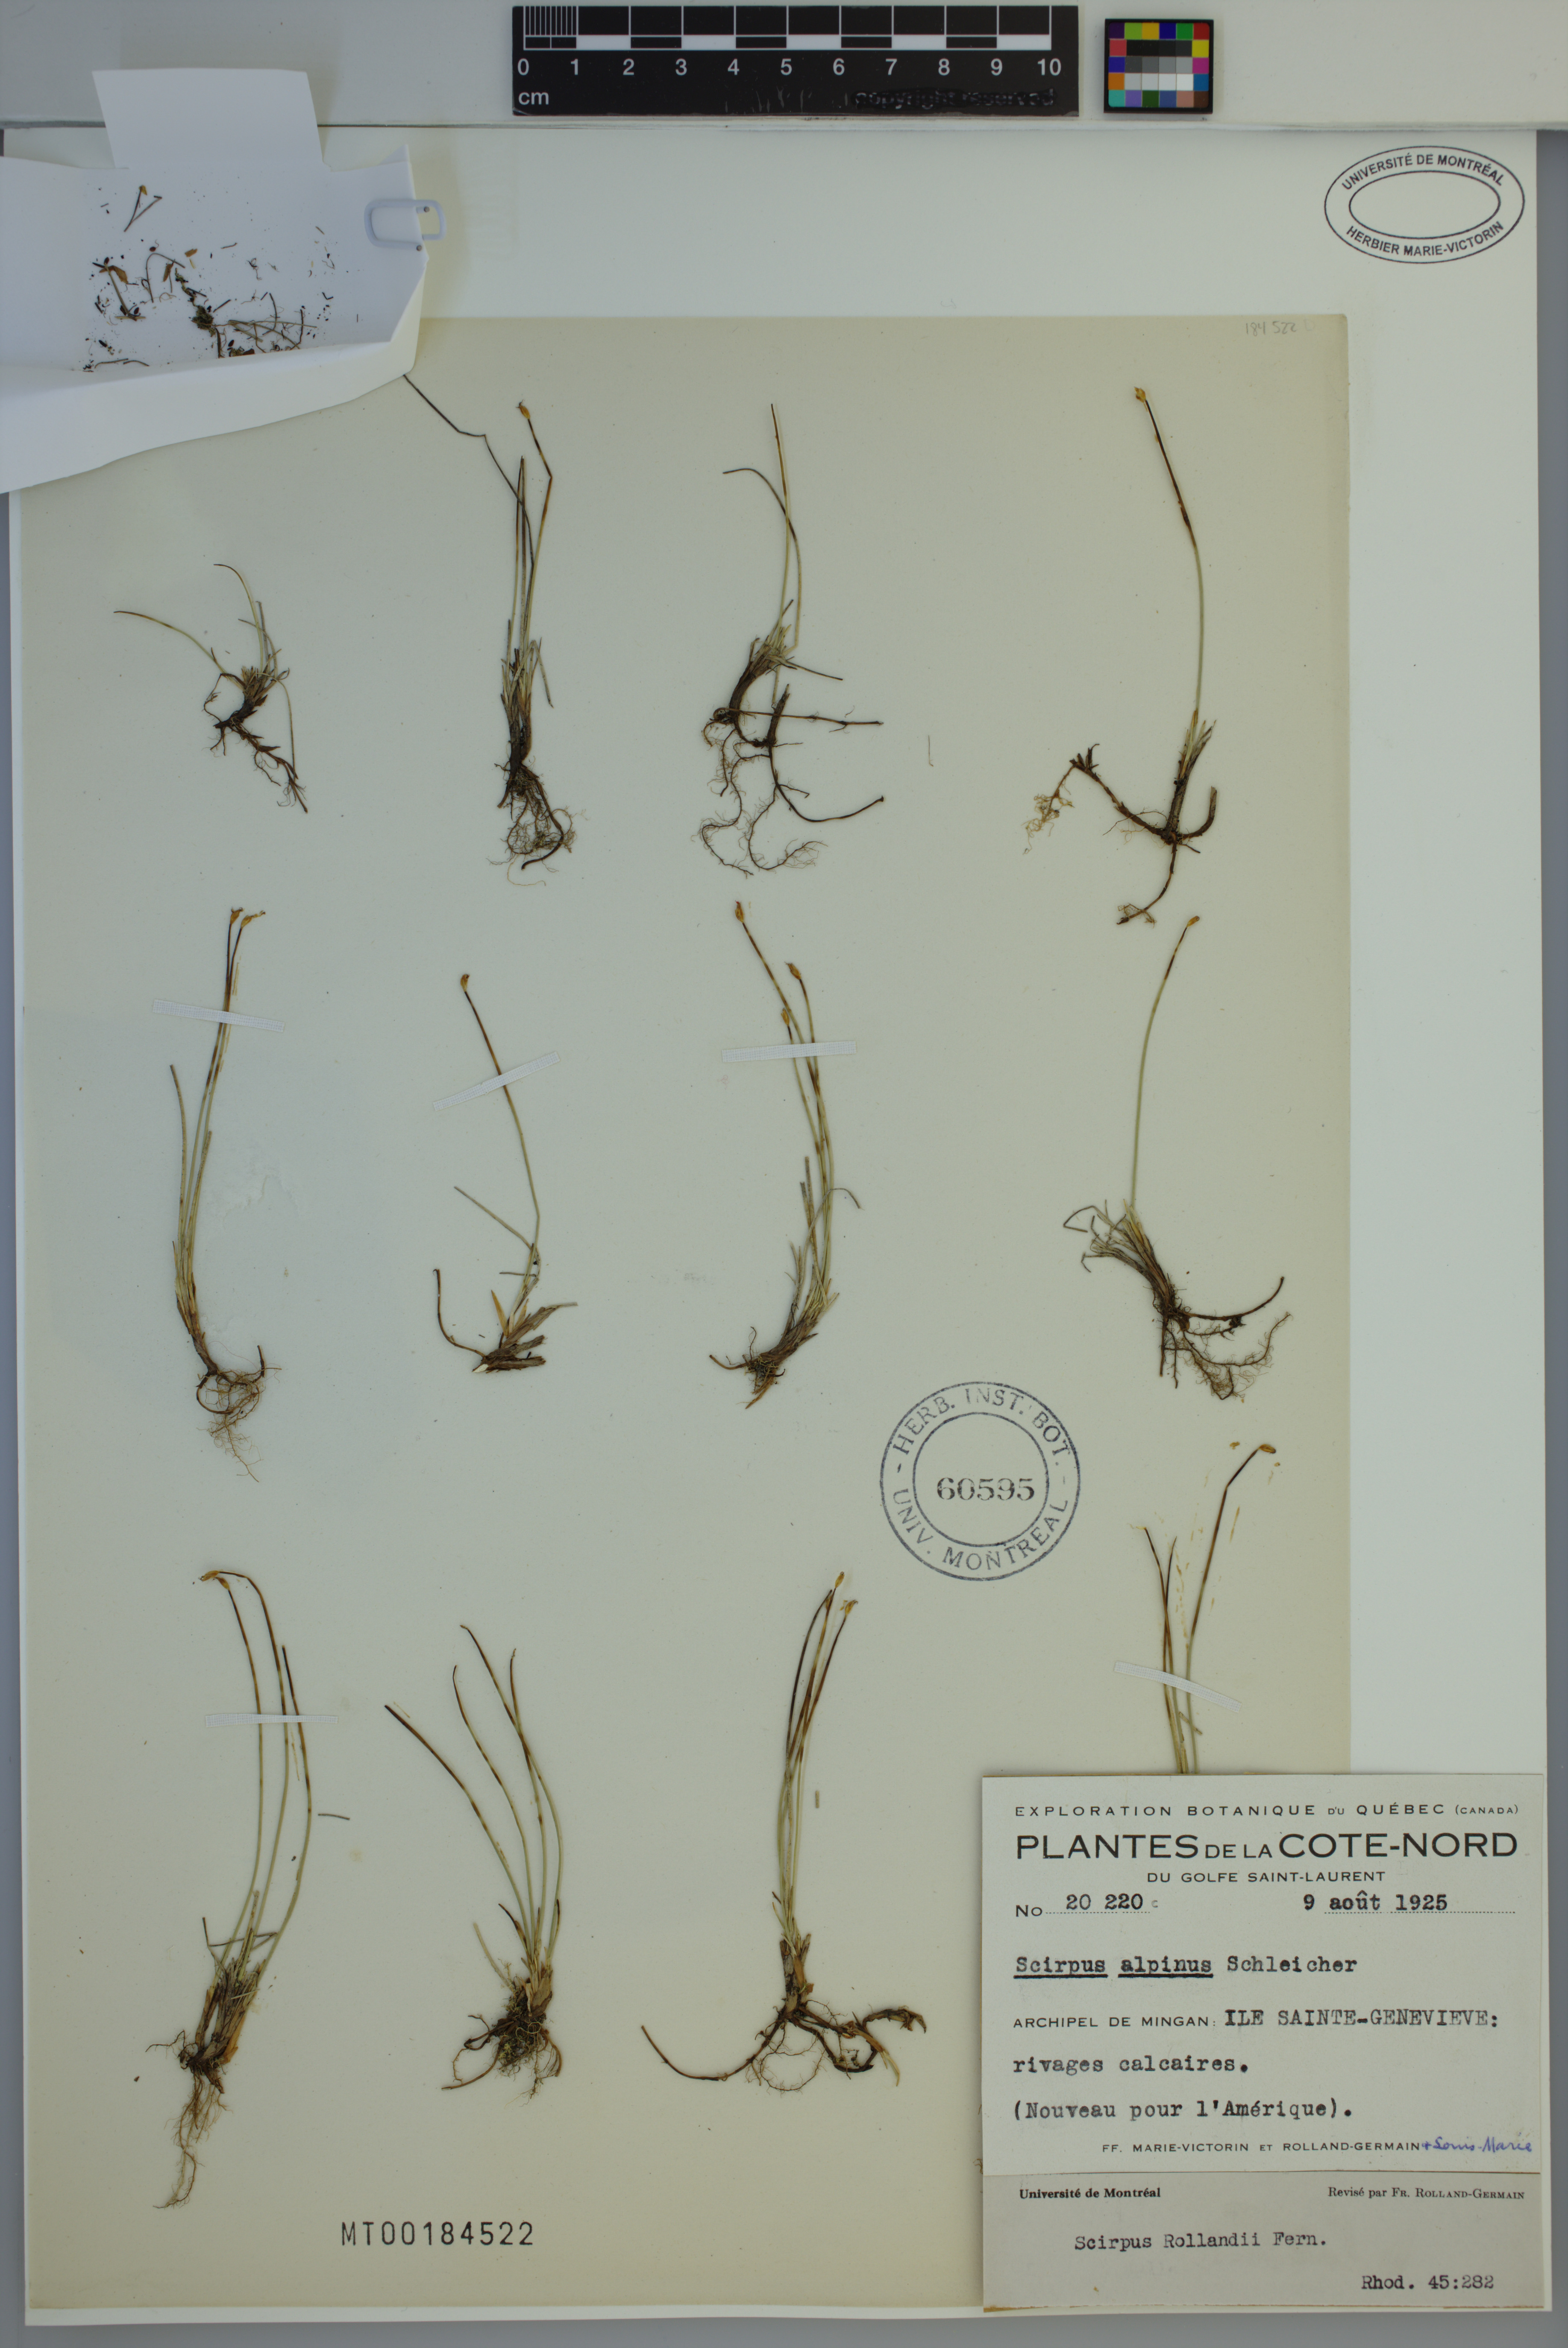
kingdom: Plantae
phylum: Tracheophyta
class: Liliopsida
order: Poales
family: Cyperaceae
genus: Trichophorum
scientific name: Trichophorum pumilum
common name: Rolland's bulrush
